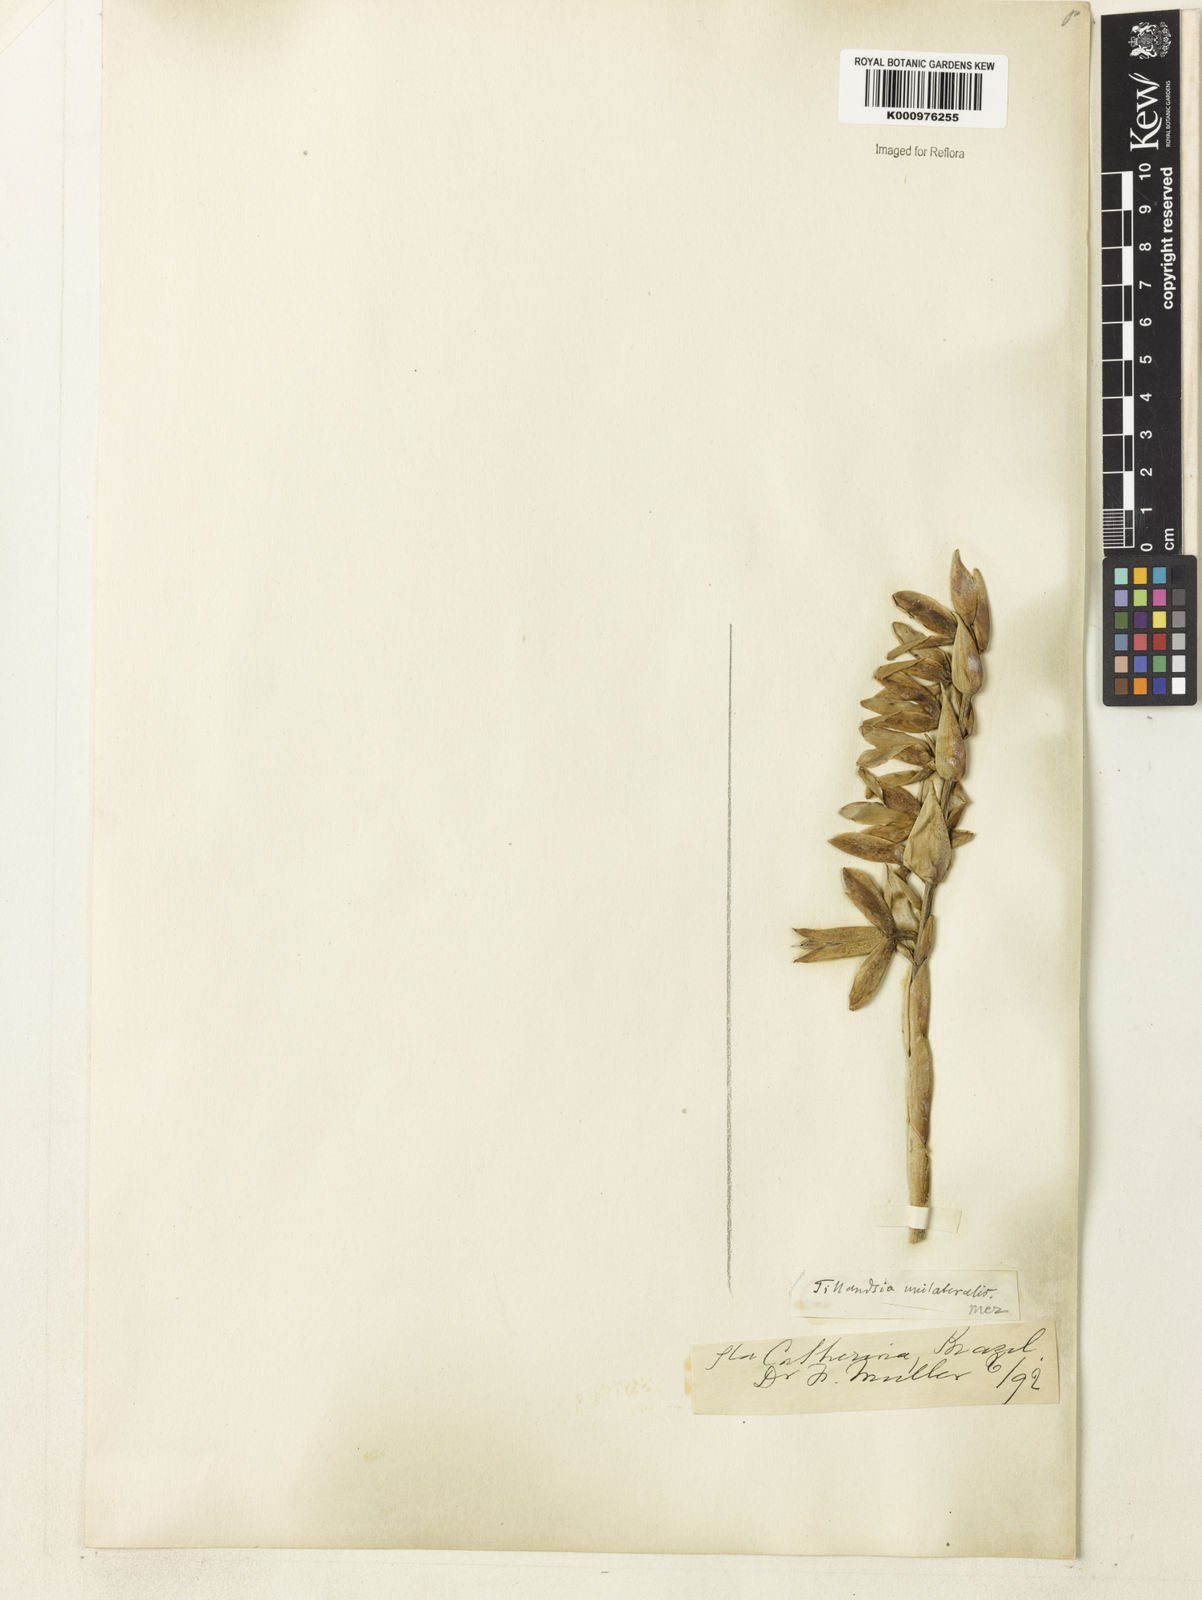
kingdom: Plantae
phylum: Tracheophyta
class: Liliopsida
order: Poales
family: Bromeliaceae
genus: Vriesea
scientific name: Vriesea unilateralis
